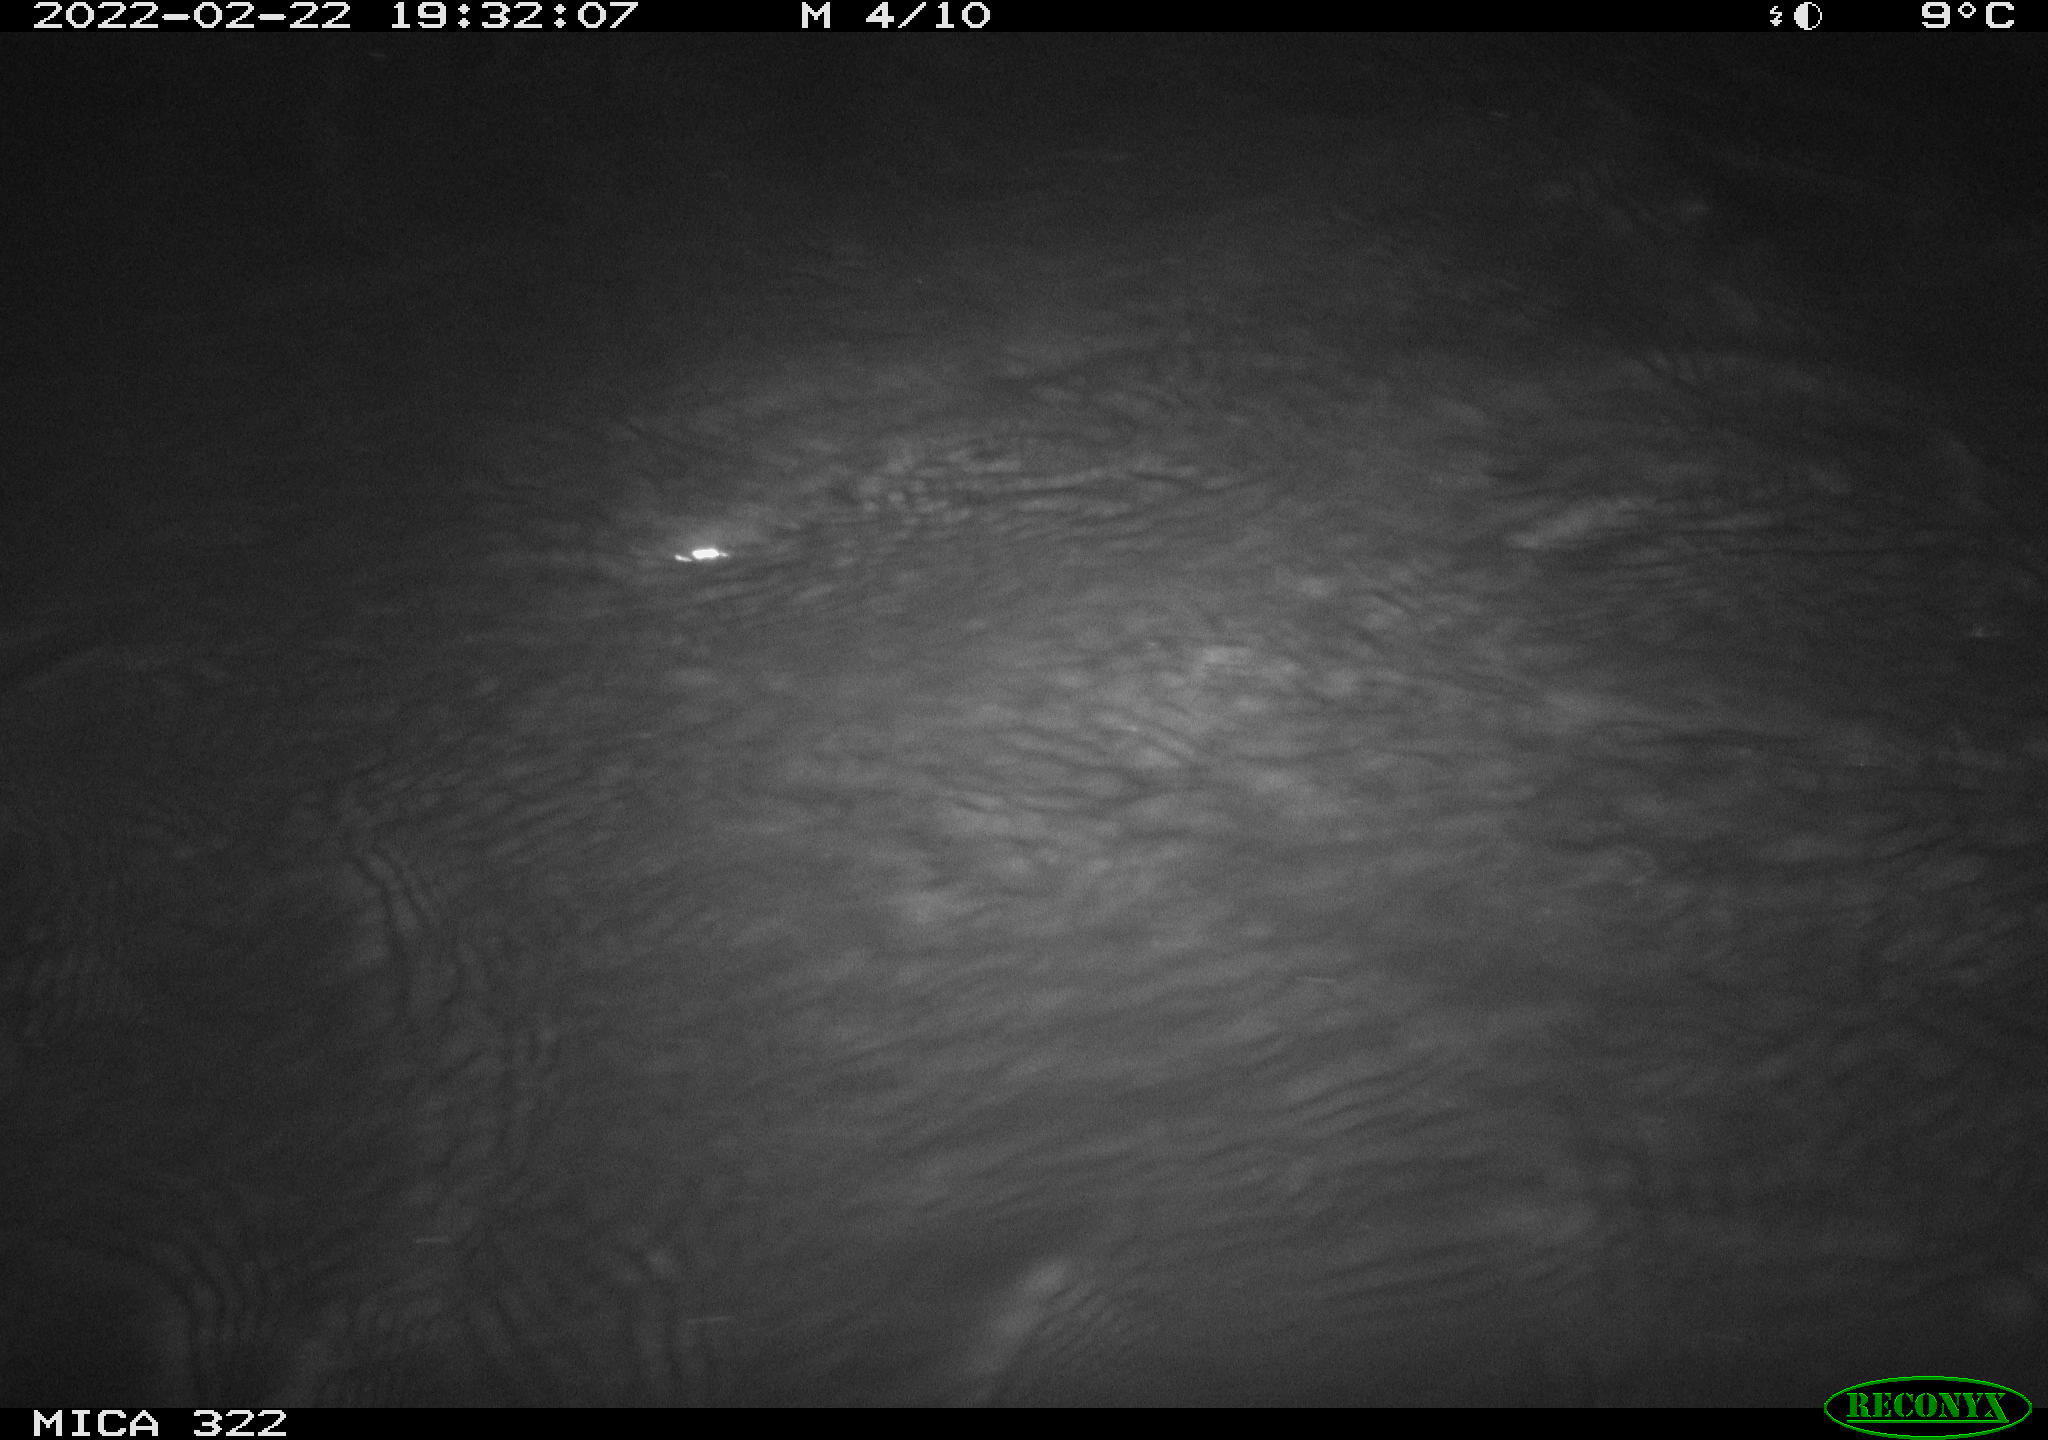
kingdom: Animalia
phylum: Chordata
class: Aves
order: Anseriformes
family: Anatidae
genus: Anas
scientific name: Anas platyrhynchos
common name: Mallard
